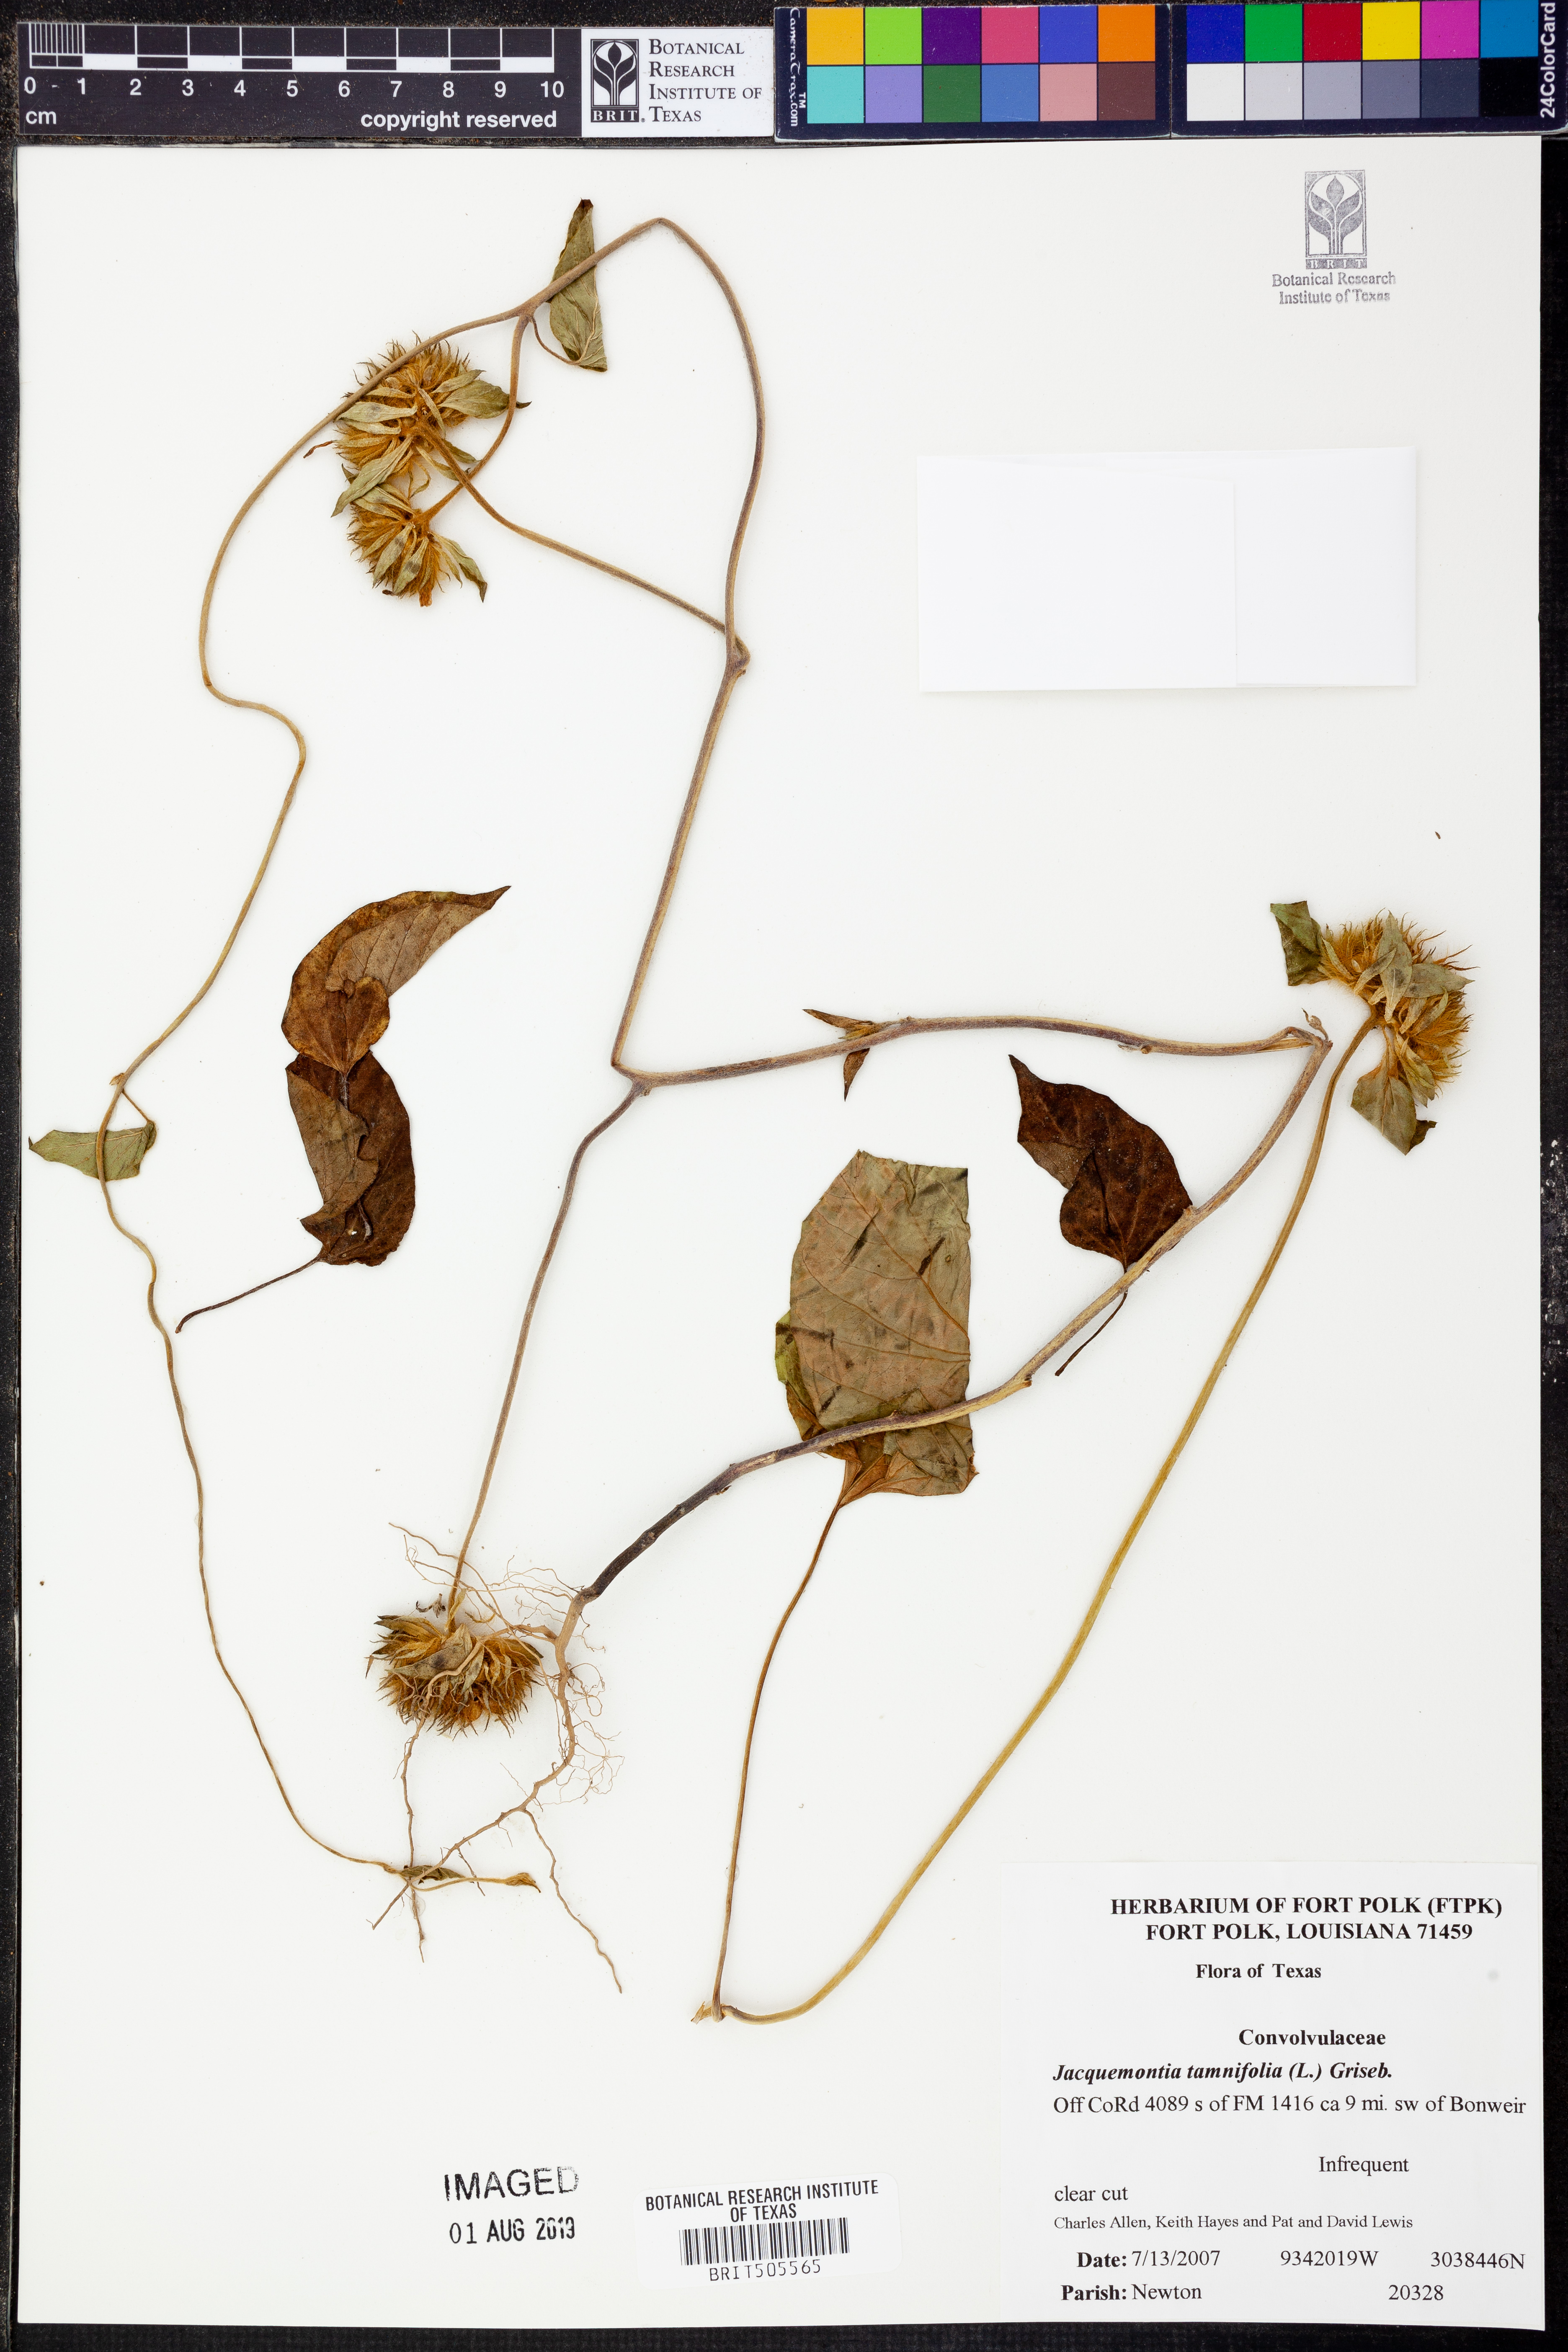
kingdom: Plantae
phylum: Tracheophyta
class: Magnoliopsida
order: Solanales
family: Convolvulaceae
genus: Jacquemontia
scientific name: Jacquemontia tamnifolia
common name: Hairy clustervine
